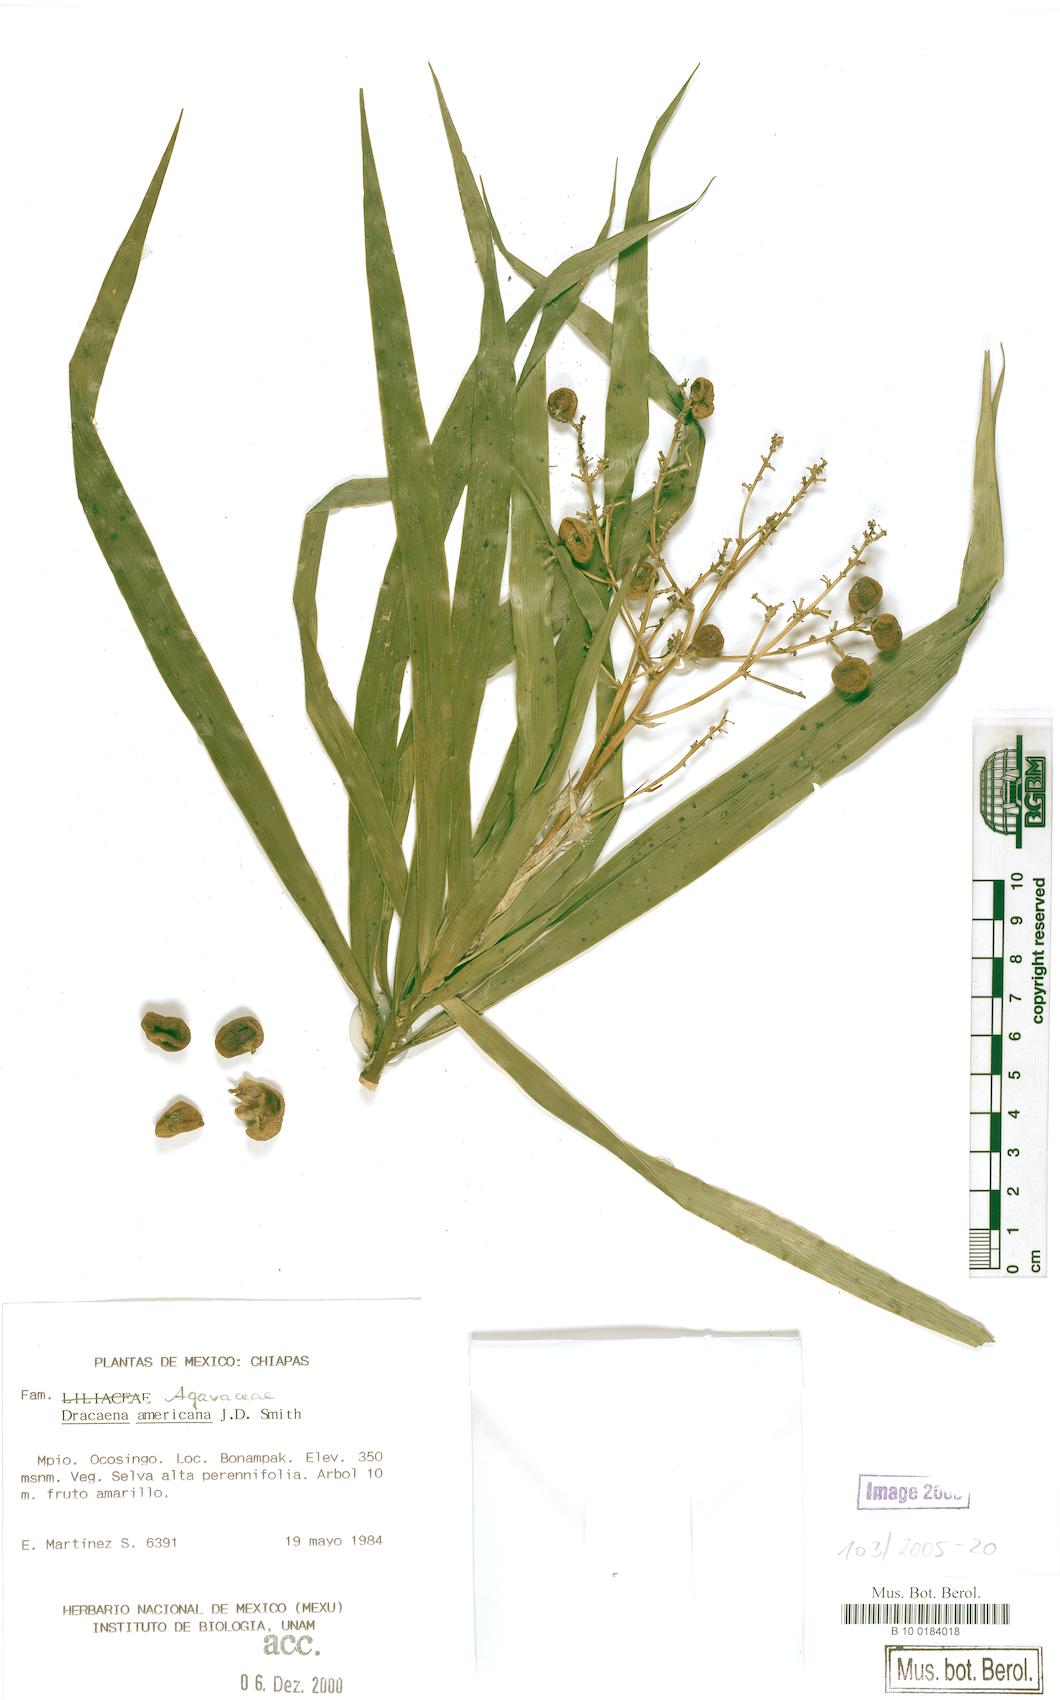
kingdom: Plantae
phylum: Tracheophyta
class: Liliopsida
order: Asparagales
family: Asparagaceae
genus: Dracaena
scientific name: Dracaena ghiesbreghtii
